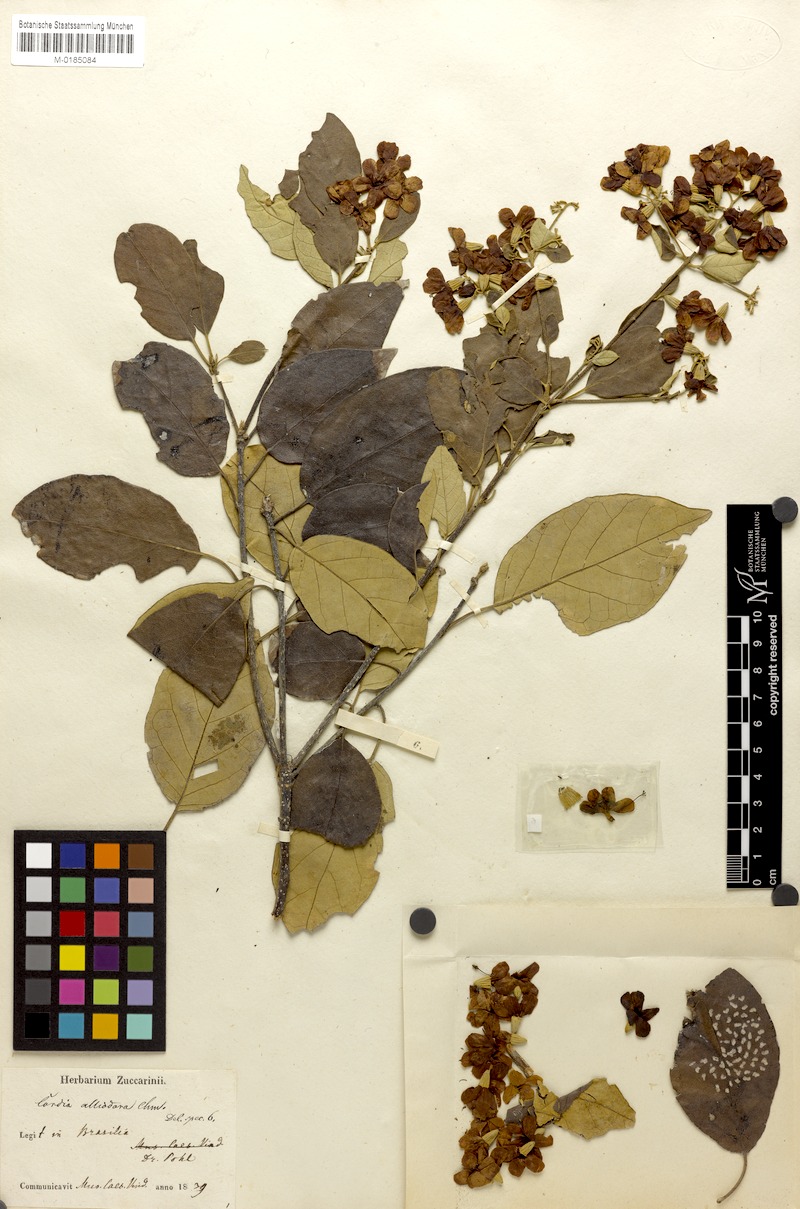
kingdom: Plantae
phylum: Tracheophyta
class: Magnoliopsida
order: Boraginales
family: Cordiaceae
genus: Cordia
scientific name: Cordia alliodora
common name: Spanish elm
